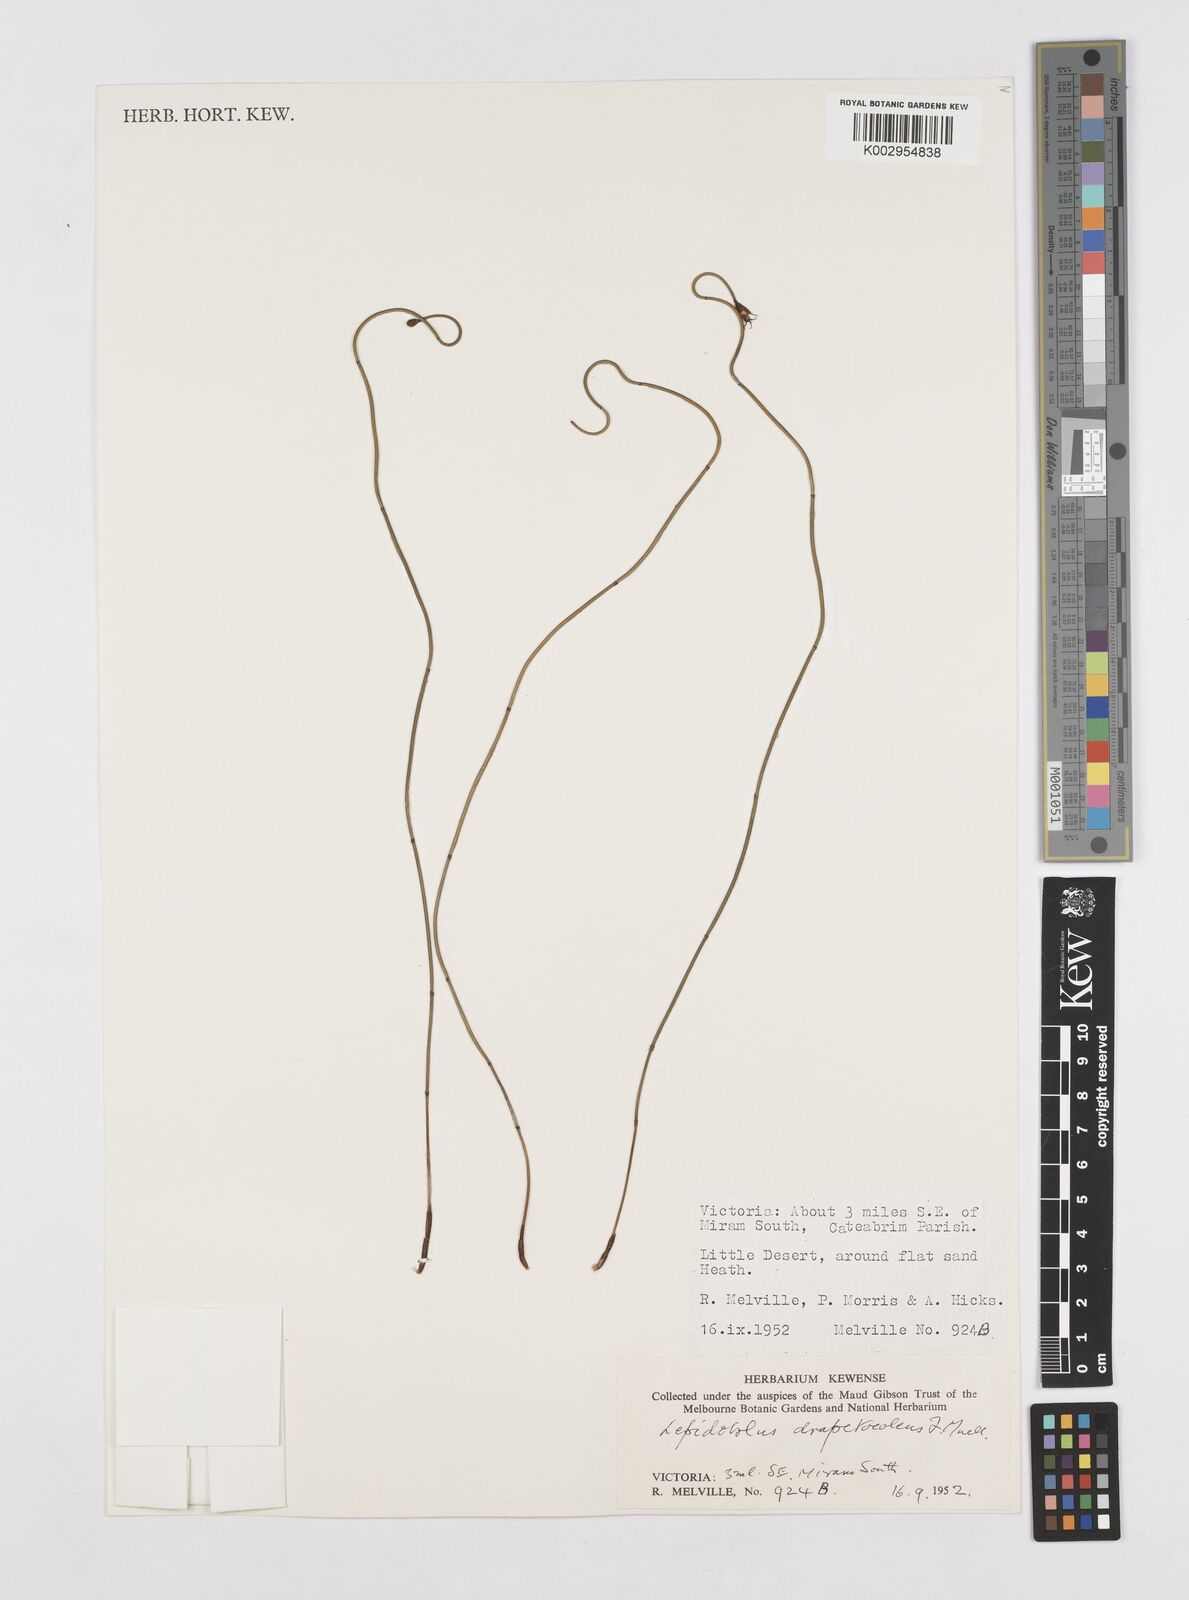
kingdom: Plantae
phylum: Tracheophyta
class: Liliopsida
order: Poales
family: Restionaceae
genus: Lepidobolus
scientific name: Lepidobolus drapetocoleus
